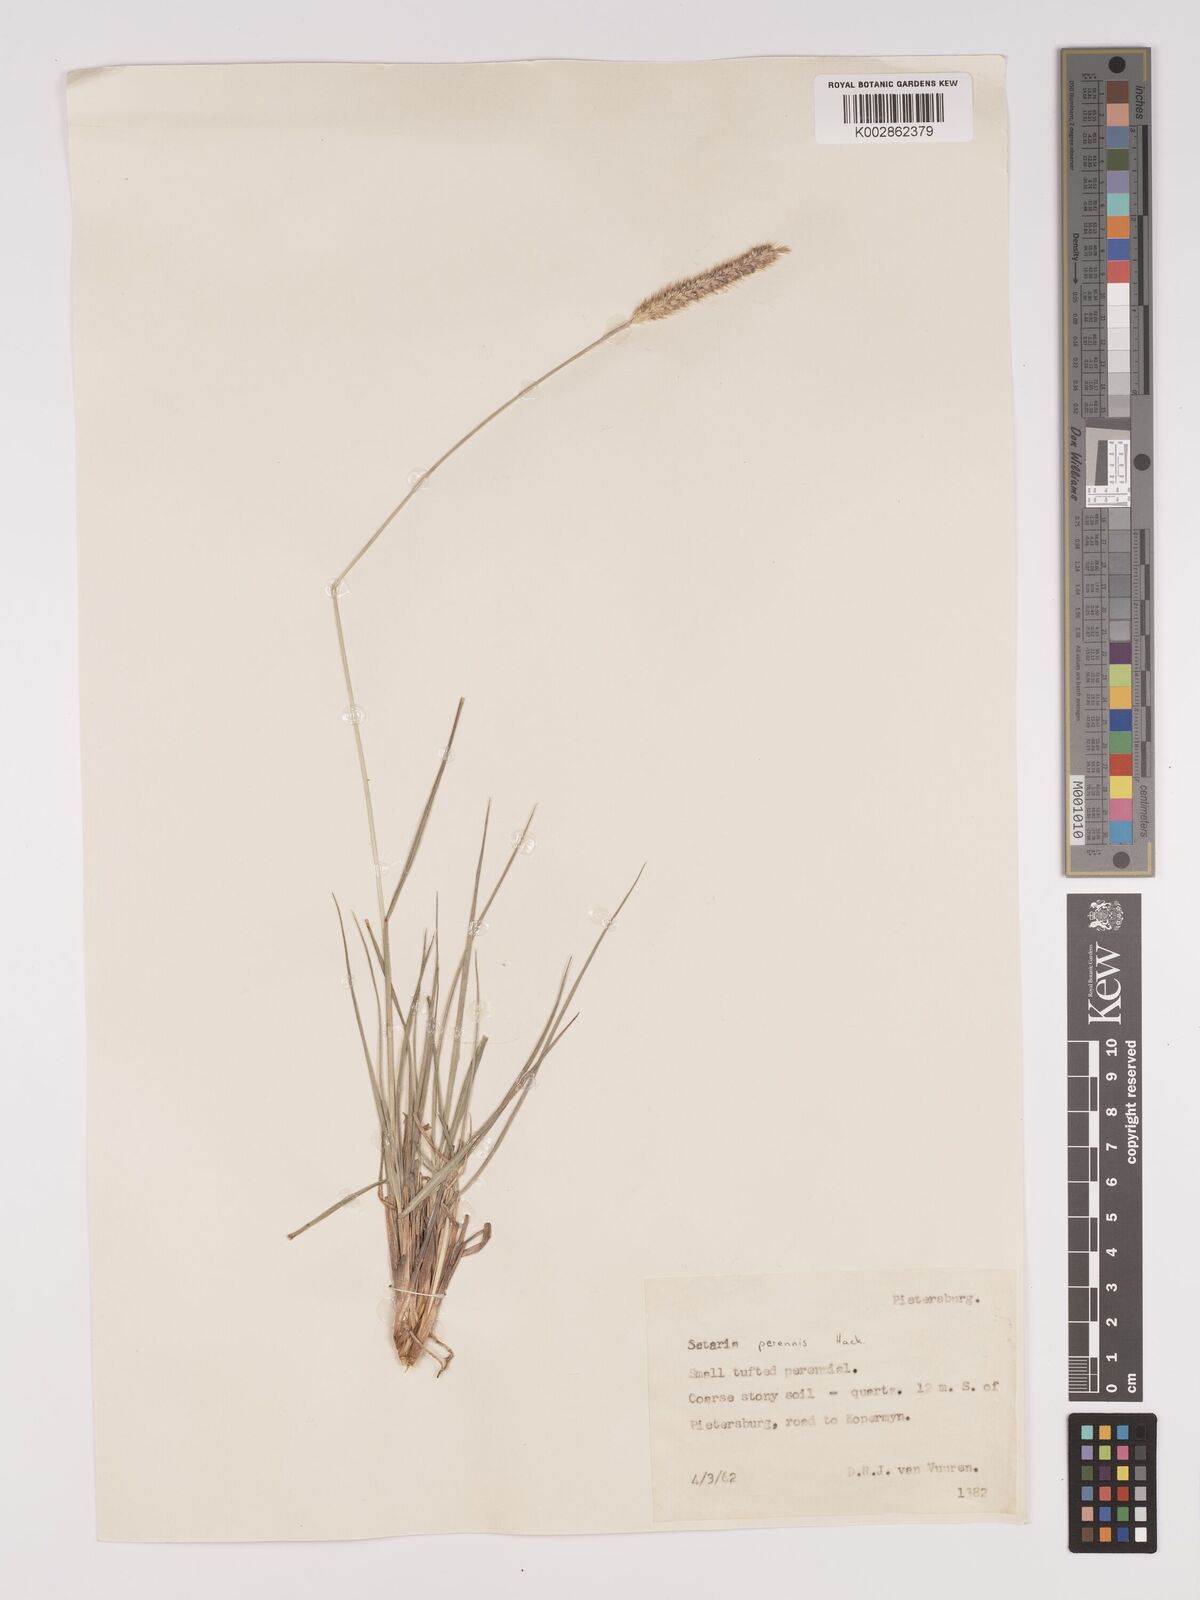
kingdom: Plantae
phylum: Tracheophyta
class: Liliopsida
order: Poales
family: Poaceae
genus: Setaria
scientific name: Setaria sphacelata
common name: African bristlegrass
